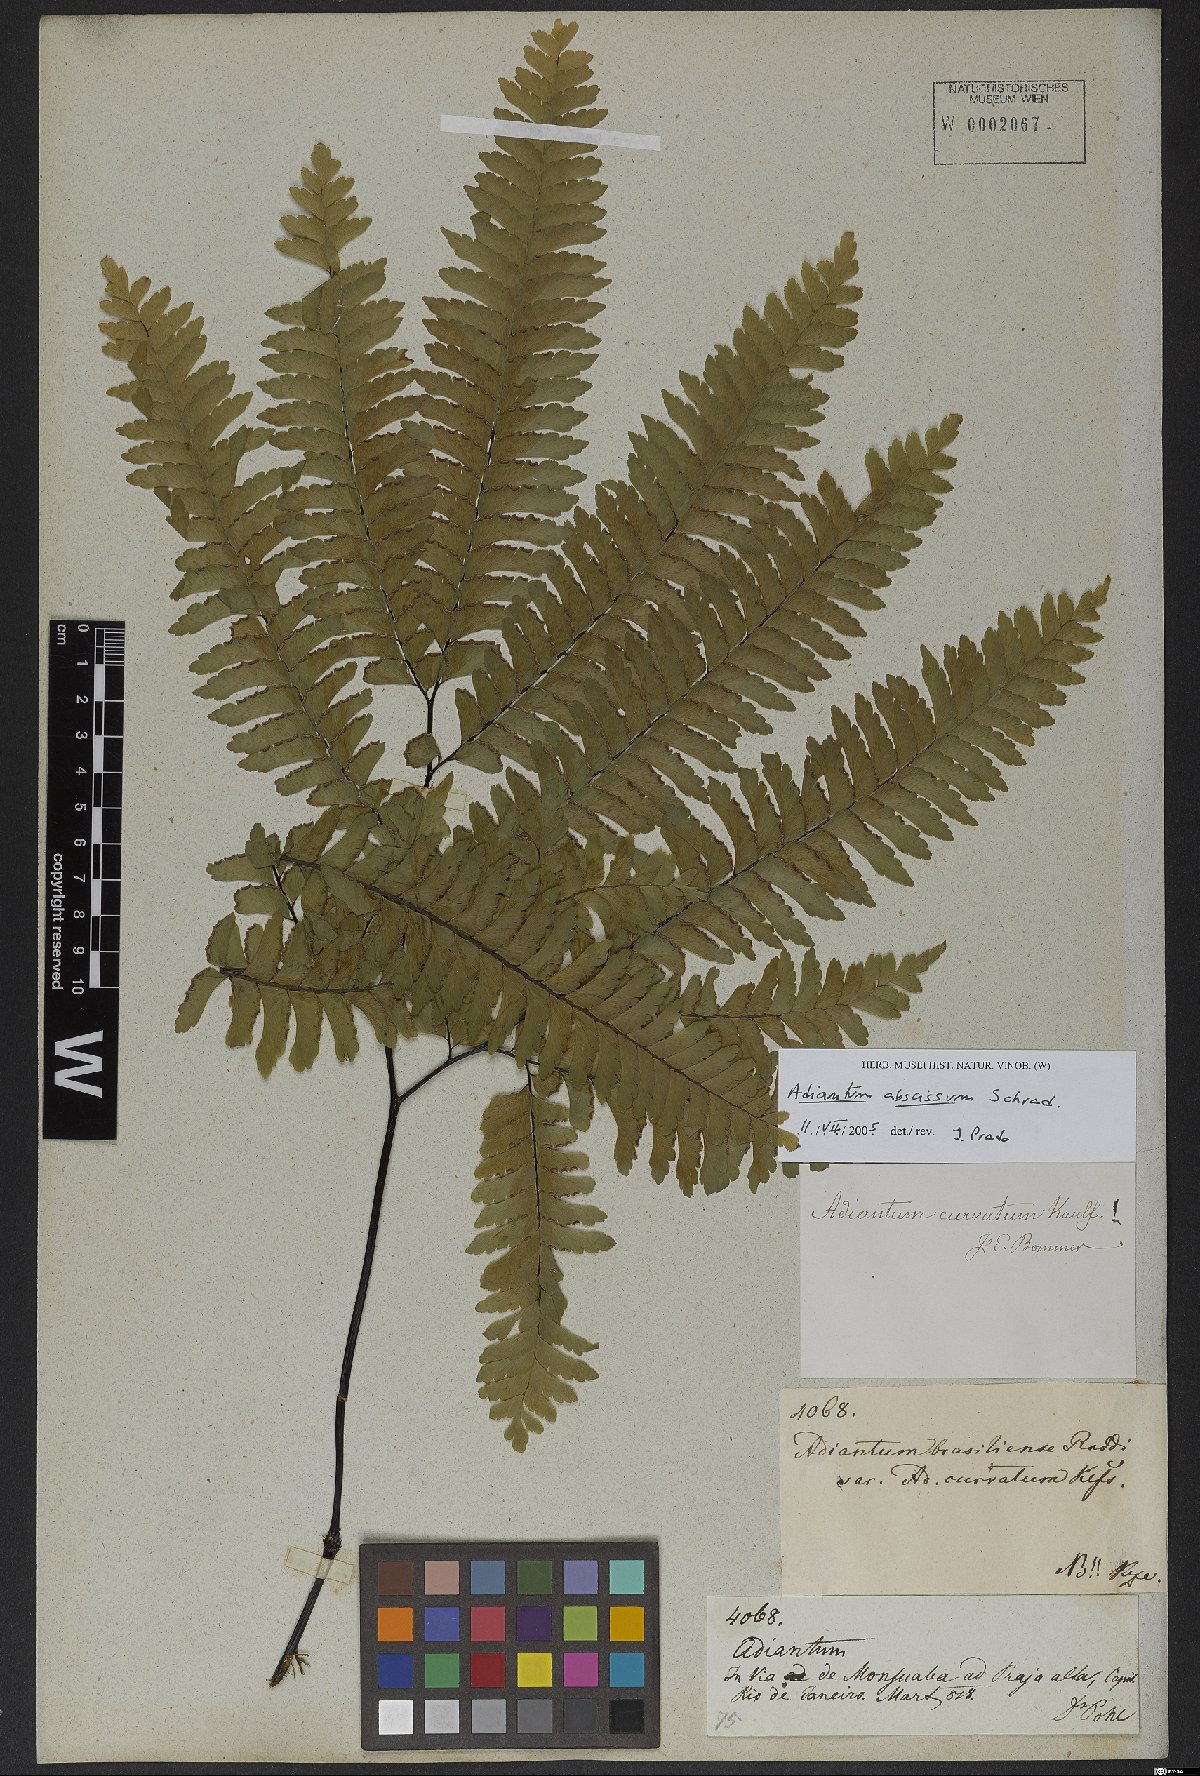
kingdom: Plantae
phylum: Tracheophyta
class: Polypodiopsida
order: Polypodiales
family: Pteridaceae
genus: Adiantum
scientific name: Adiantum abscissum
